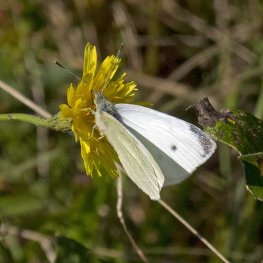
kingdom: Animalia
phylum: Arthropoda
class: Insecta
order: Lepidoptera
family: Pieridae
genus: Pieris
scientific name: Pieris rapae
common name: Cabbage White
